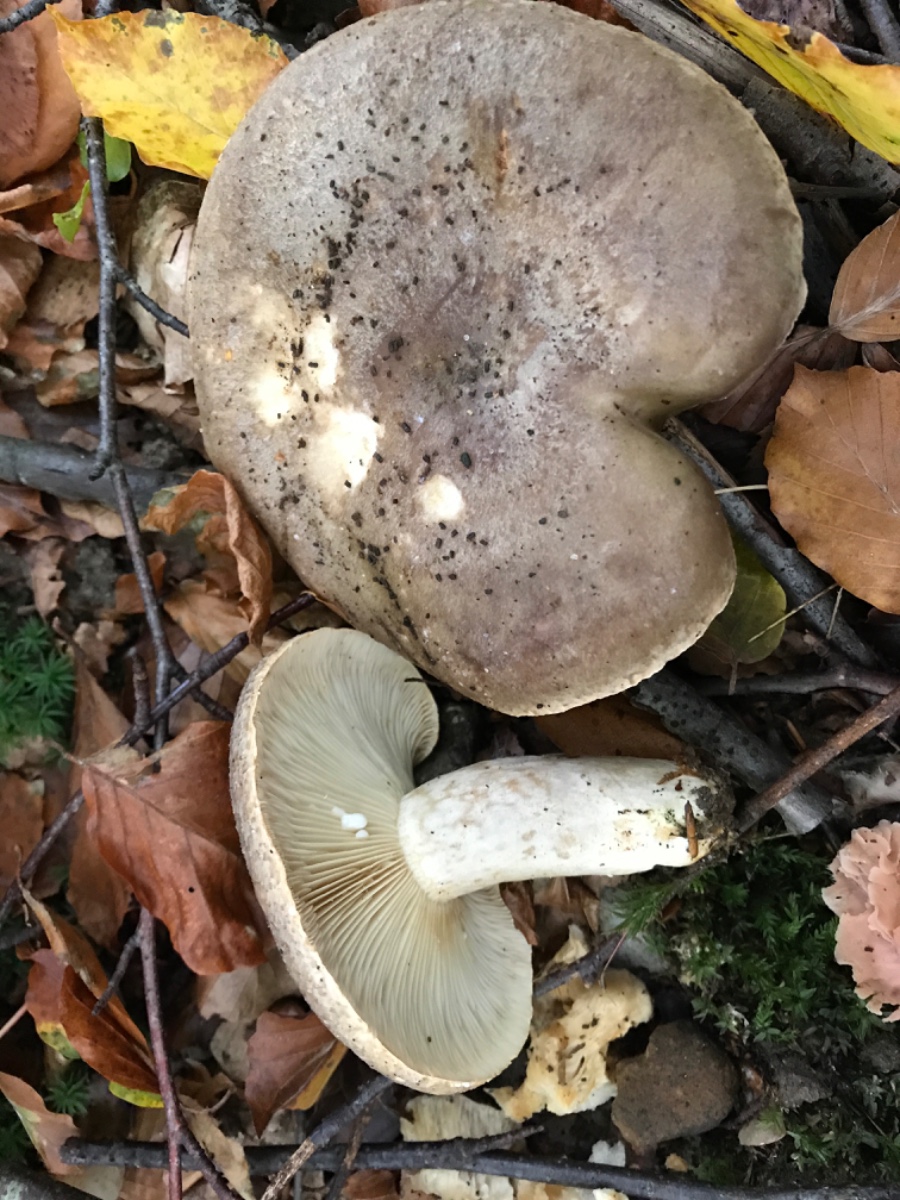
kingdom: Fungi
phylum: Basidiomycota
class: Agaricomycetes
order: Russulales
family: Russulaceae
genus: Lactarius
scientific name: Lactarius fluens
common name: lysrandet mælkehat
